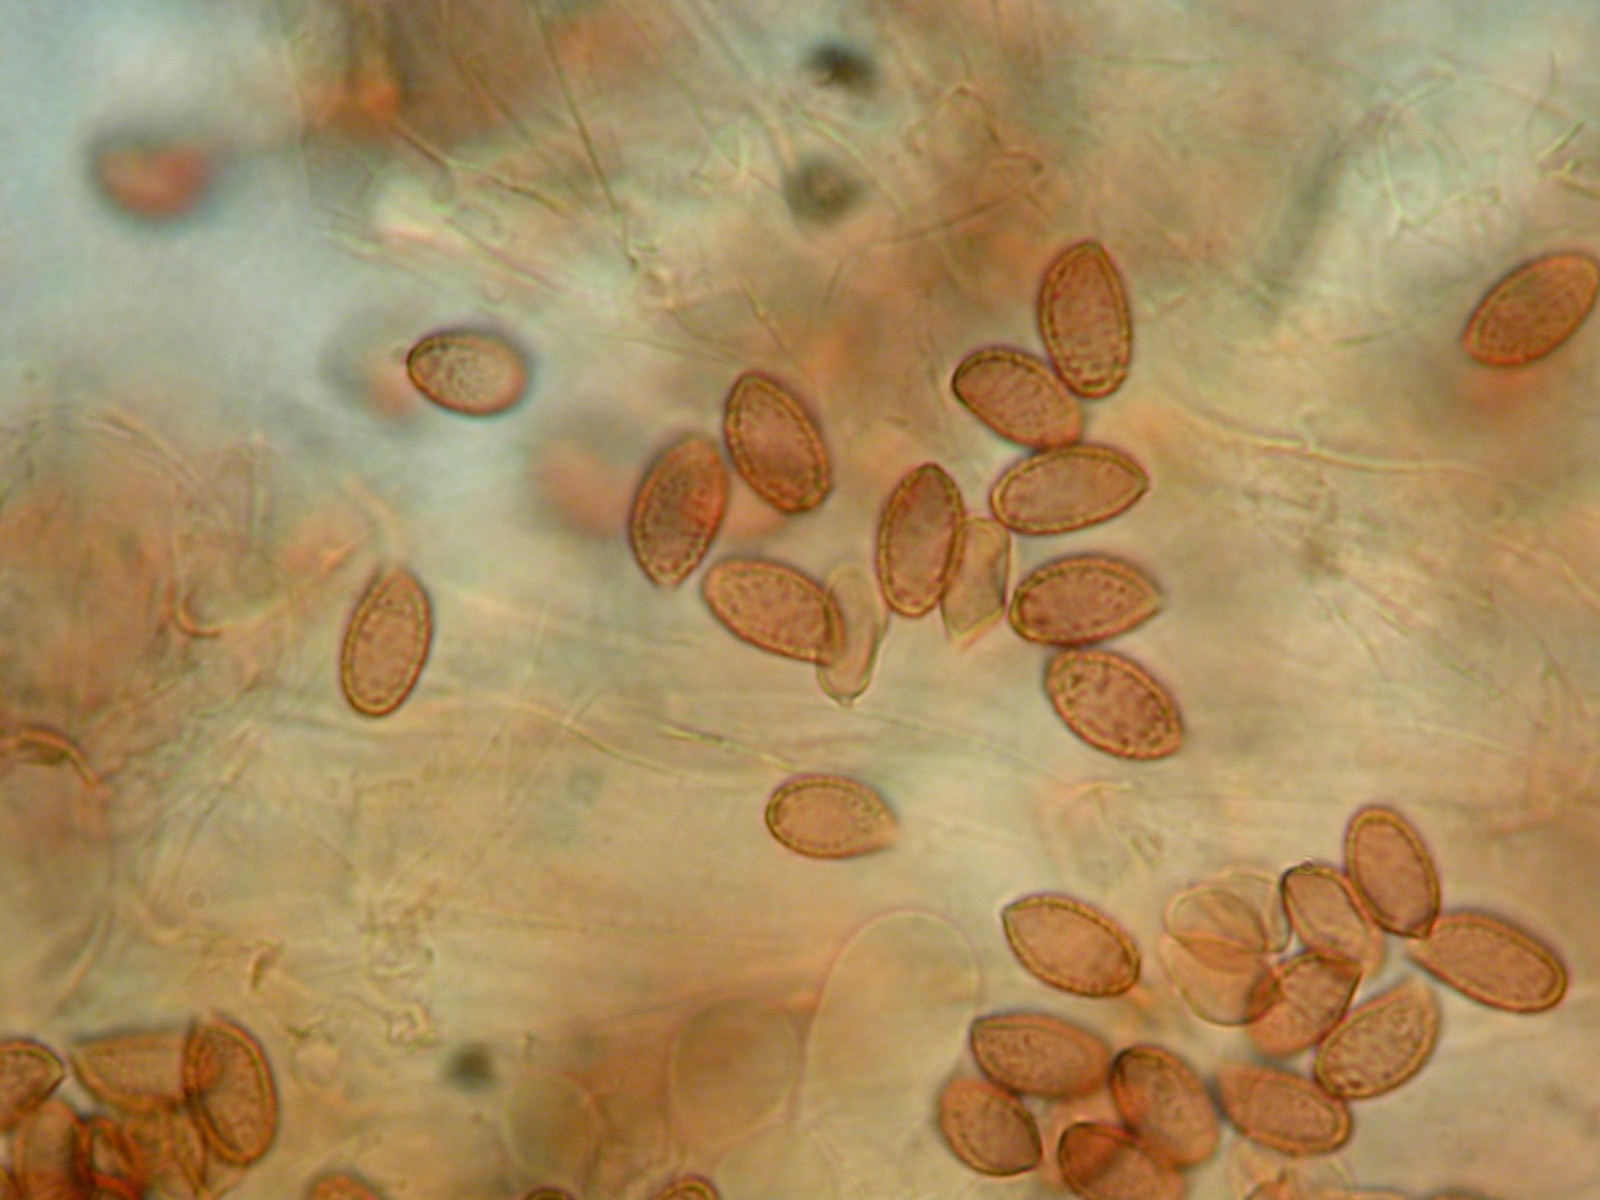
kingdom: Fungi
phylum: Basidiomycota
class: Agaricomycetes
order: Agaricales
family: Cortinariaceae
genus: Cortinarius
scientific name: Cortinarius
